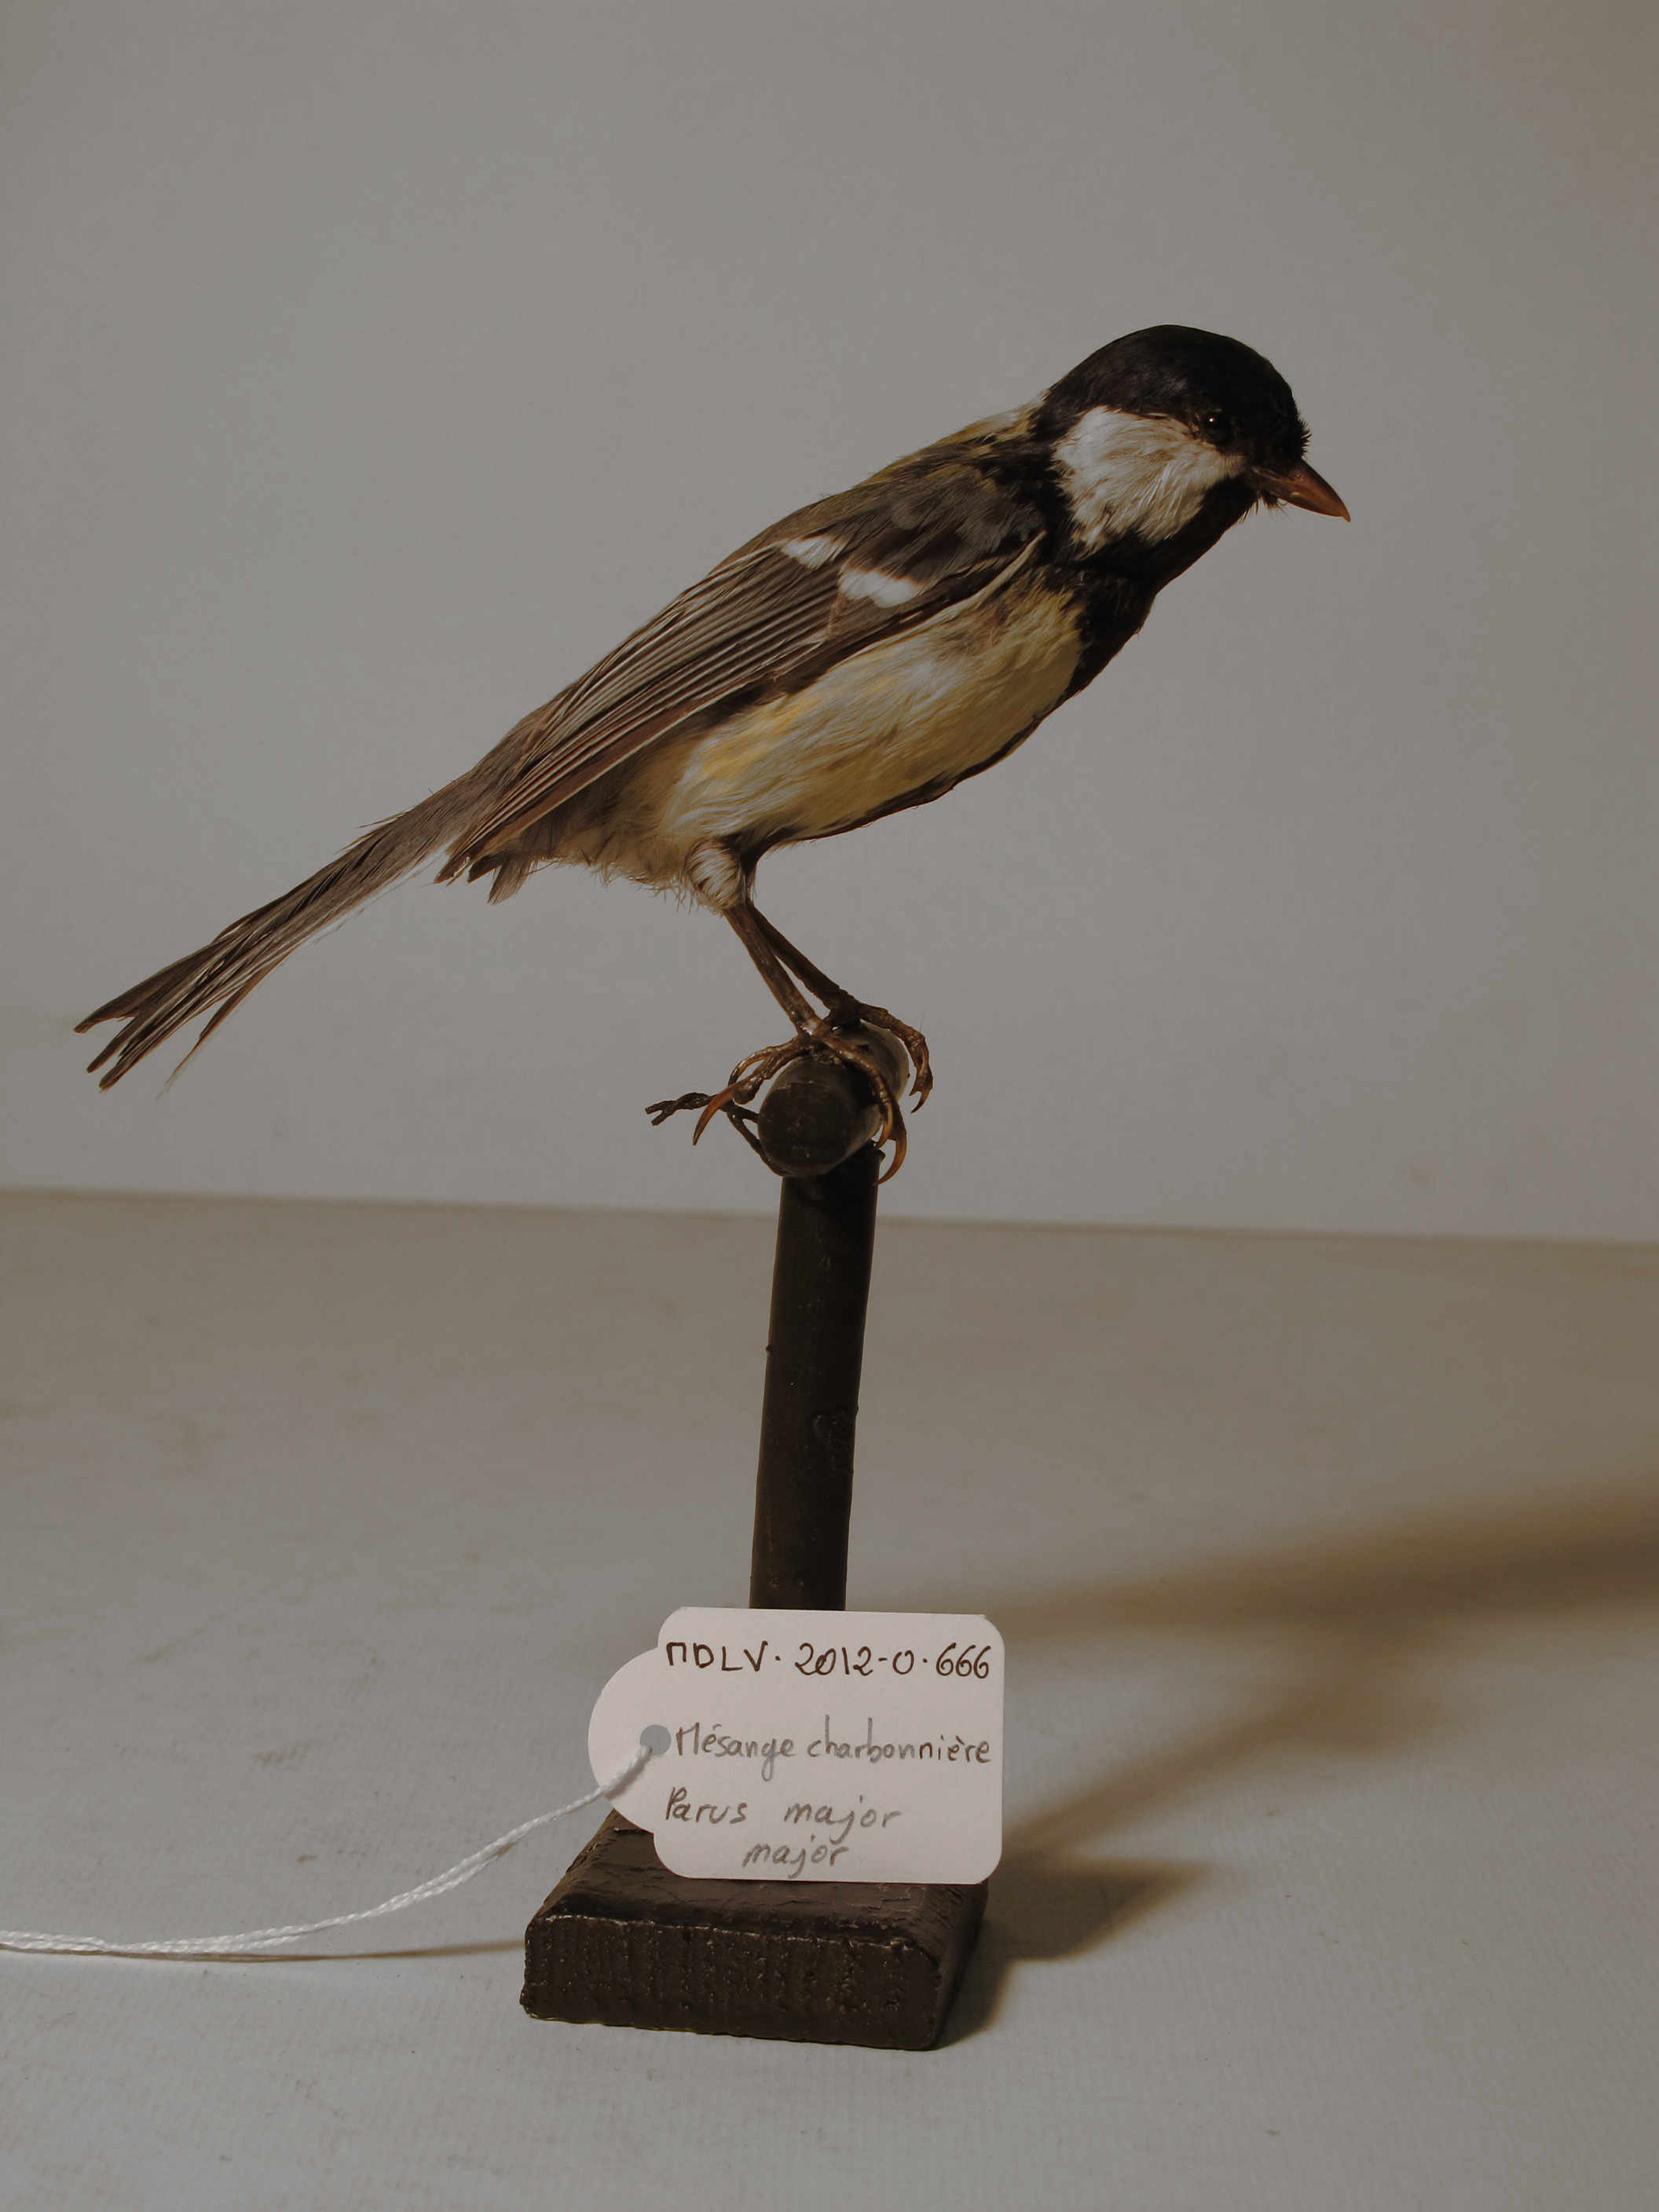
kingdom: Animalia
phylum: Chordata
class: Aves
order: Passeriformes
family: Paridae
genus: Parus
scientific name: Parus major
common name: Great Tit
